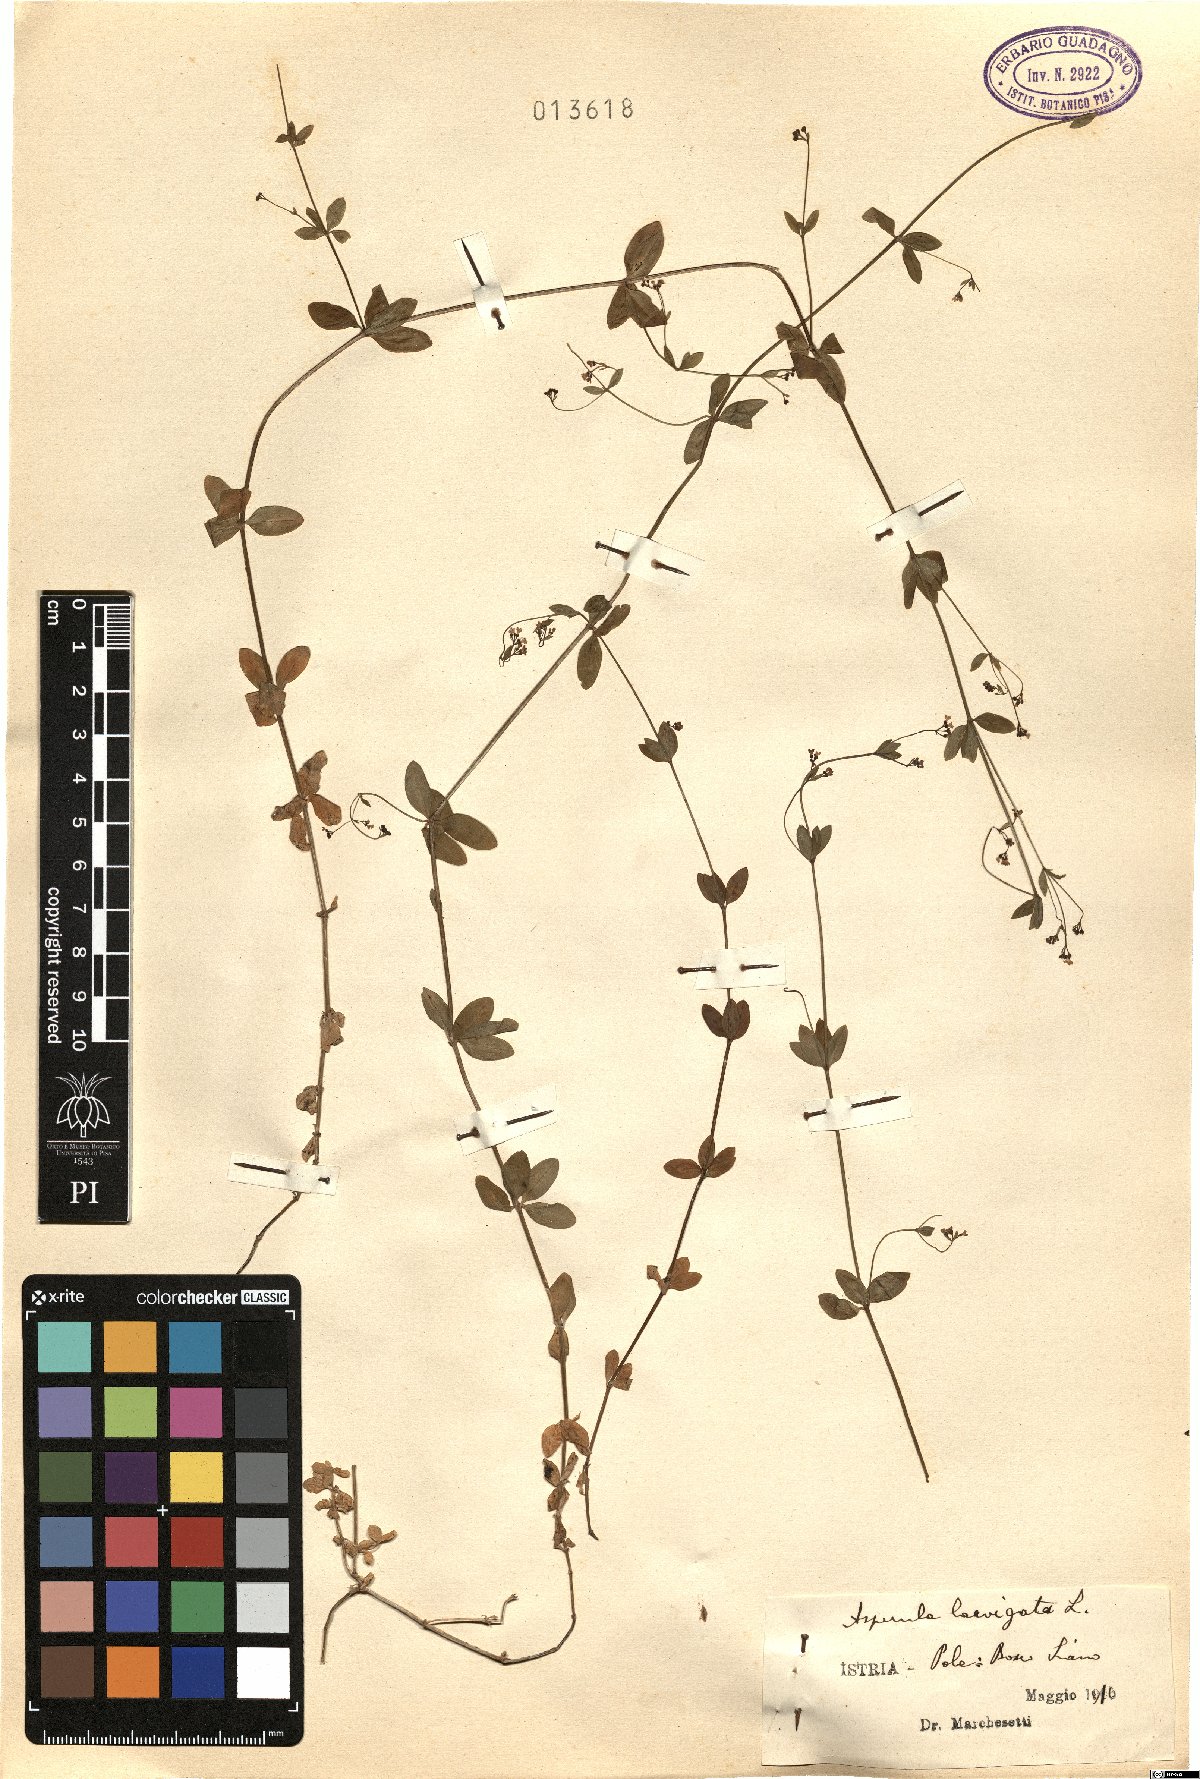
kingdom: Plantae
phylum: Tracheophyta
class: Magnoliopsida
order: Gentianales
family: Rubiaceae
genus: Asperula
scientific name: Asperula laevigata
